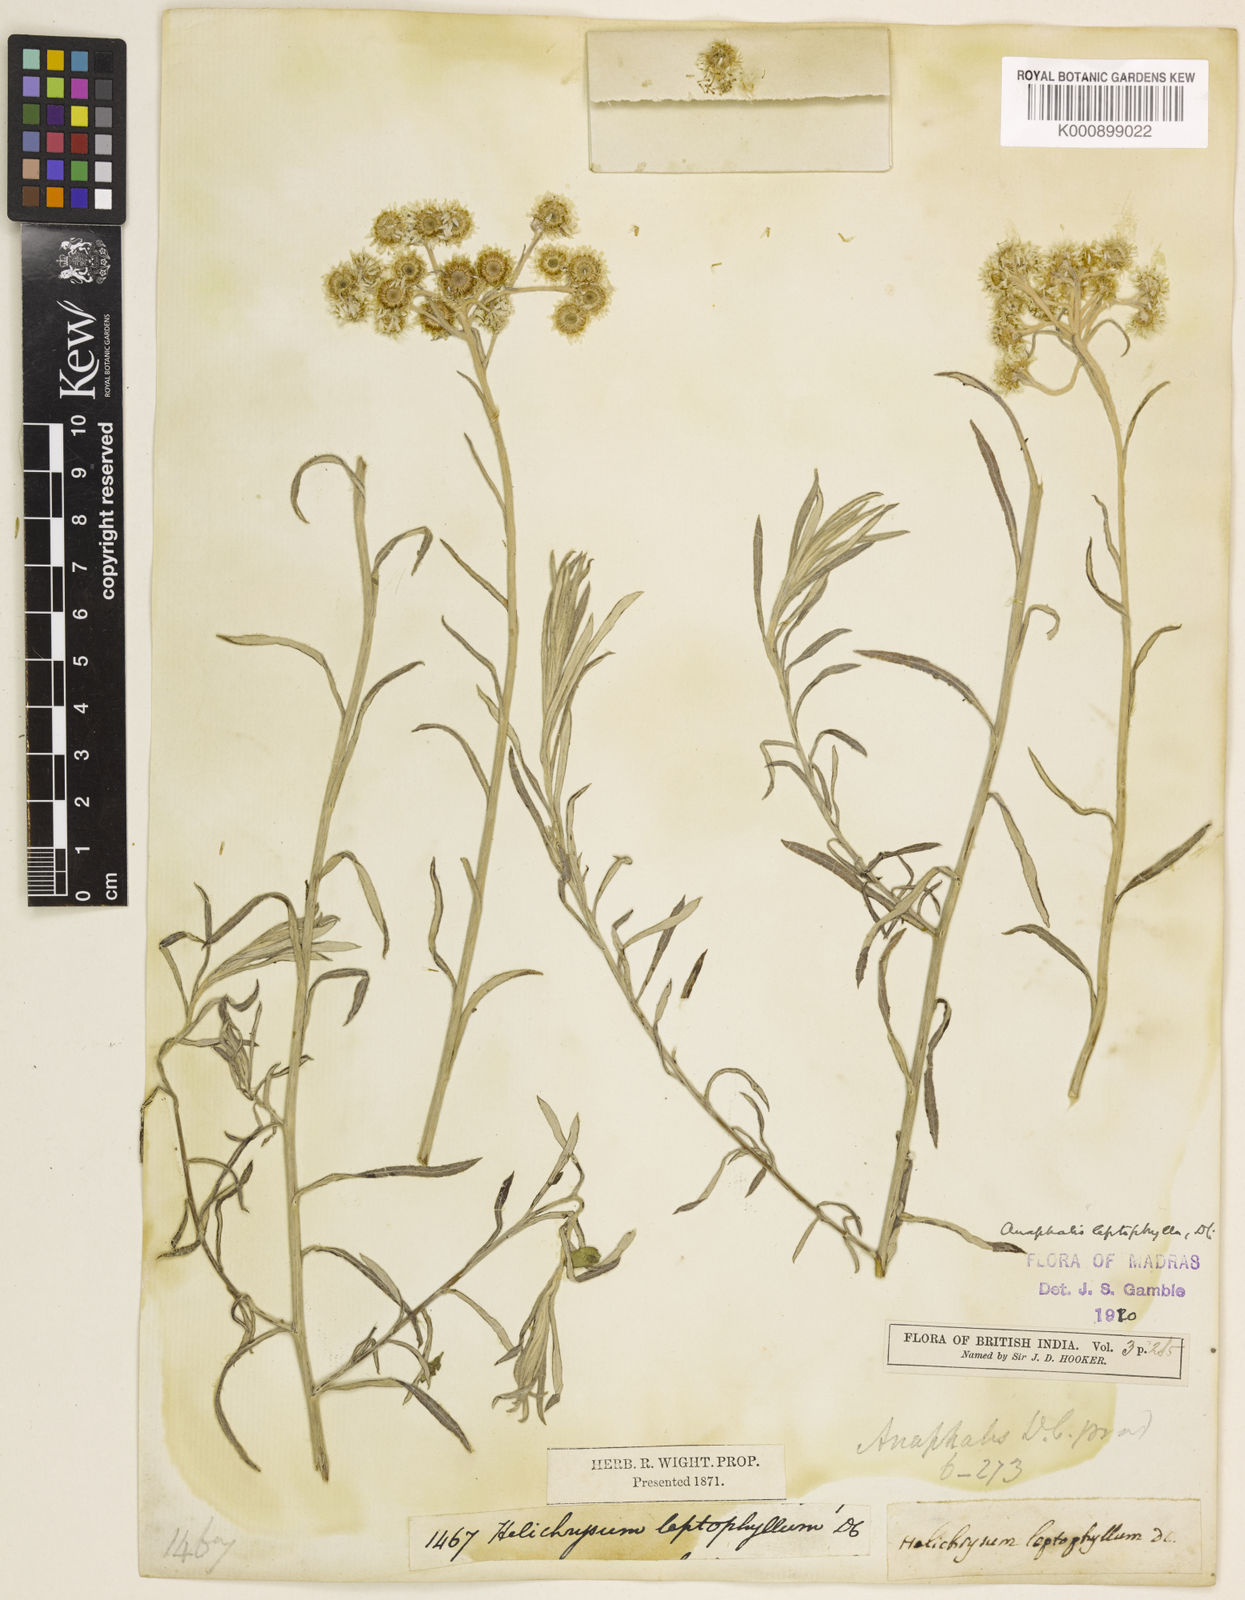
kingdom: Plantae
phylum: Tracheophyta
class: Magnoliopsida
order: Asterales
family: Asteraceae
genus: Anaphalis
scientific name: Anaphalis leptophylla
